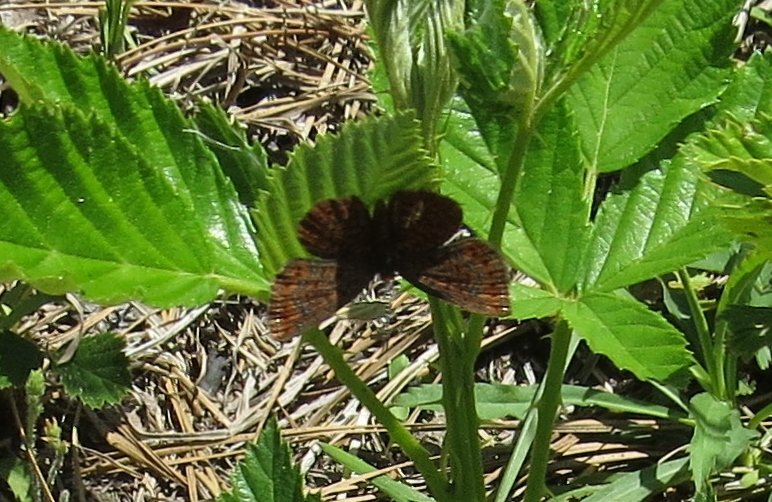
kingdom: Animalia
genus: Calephelis
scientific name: Calephelis virginiensis
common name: Little Metalmark
